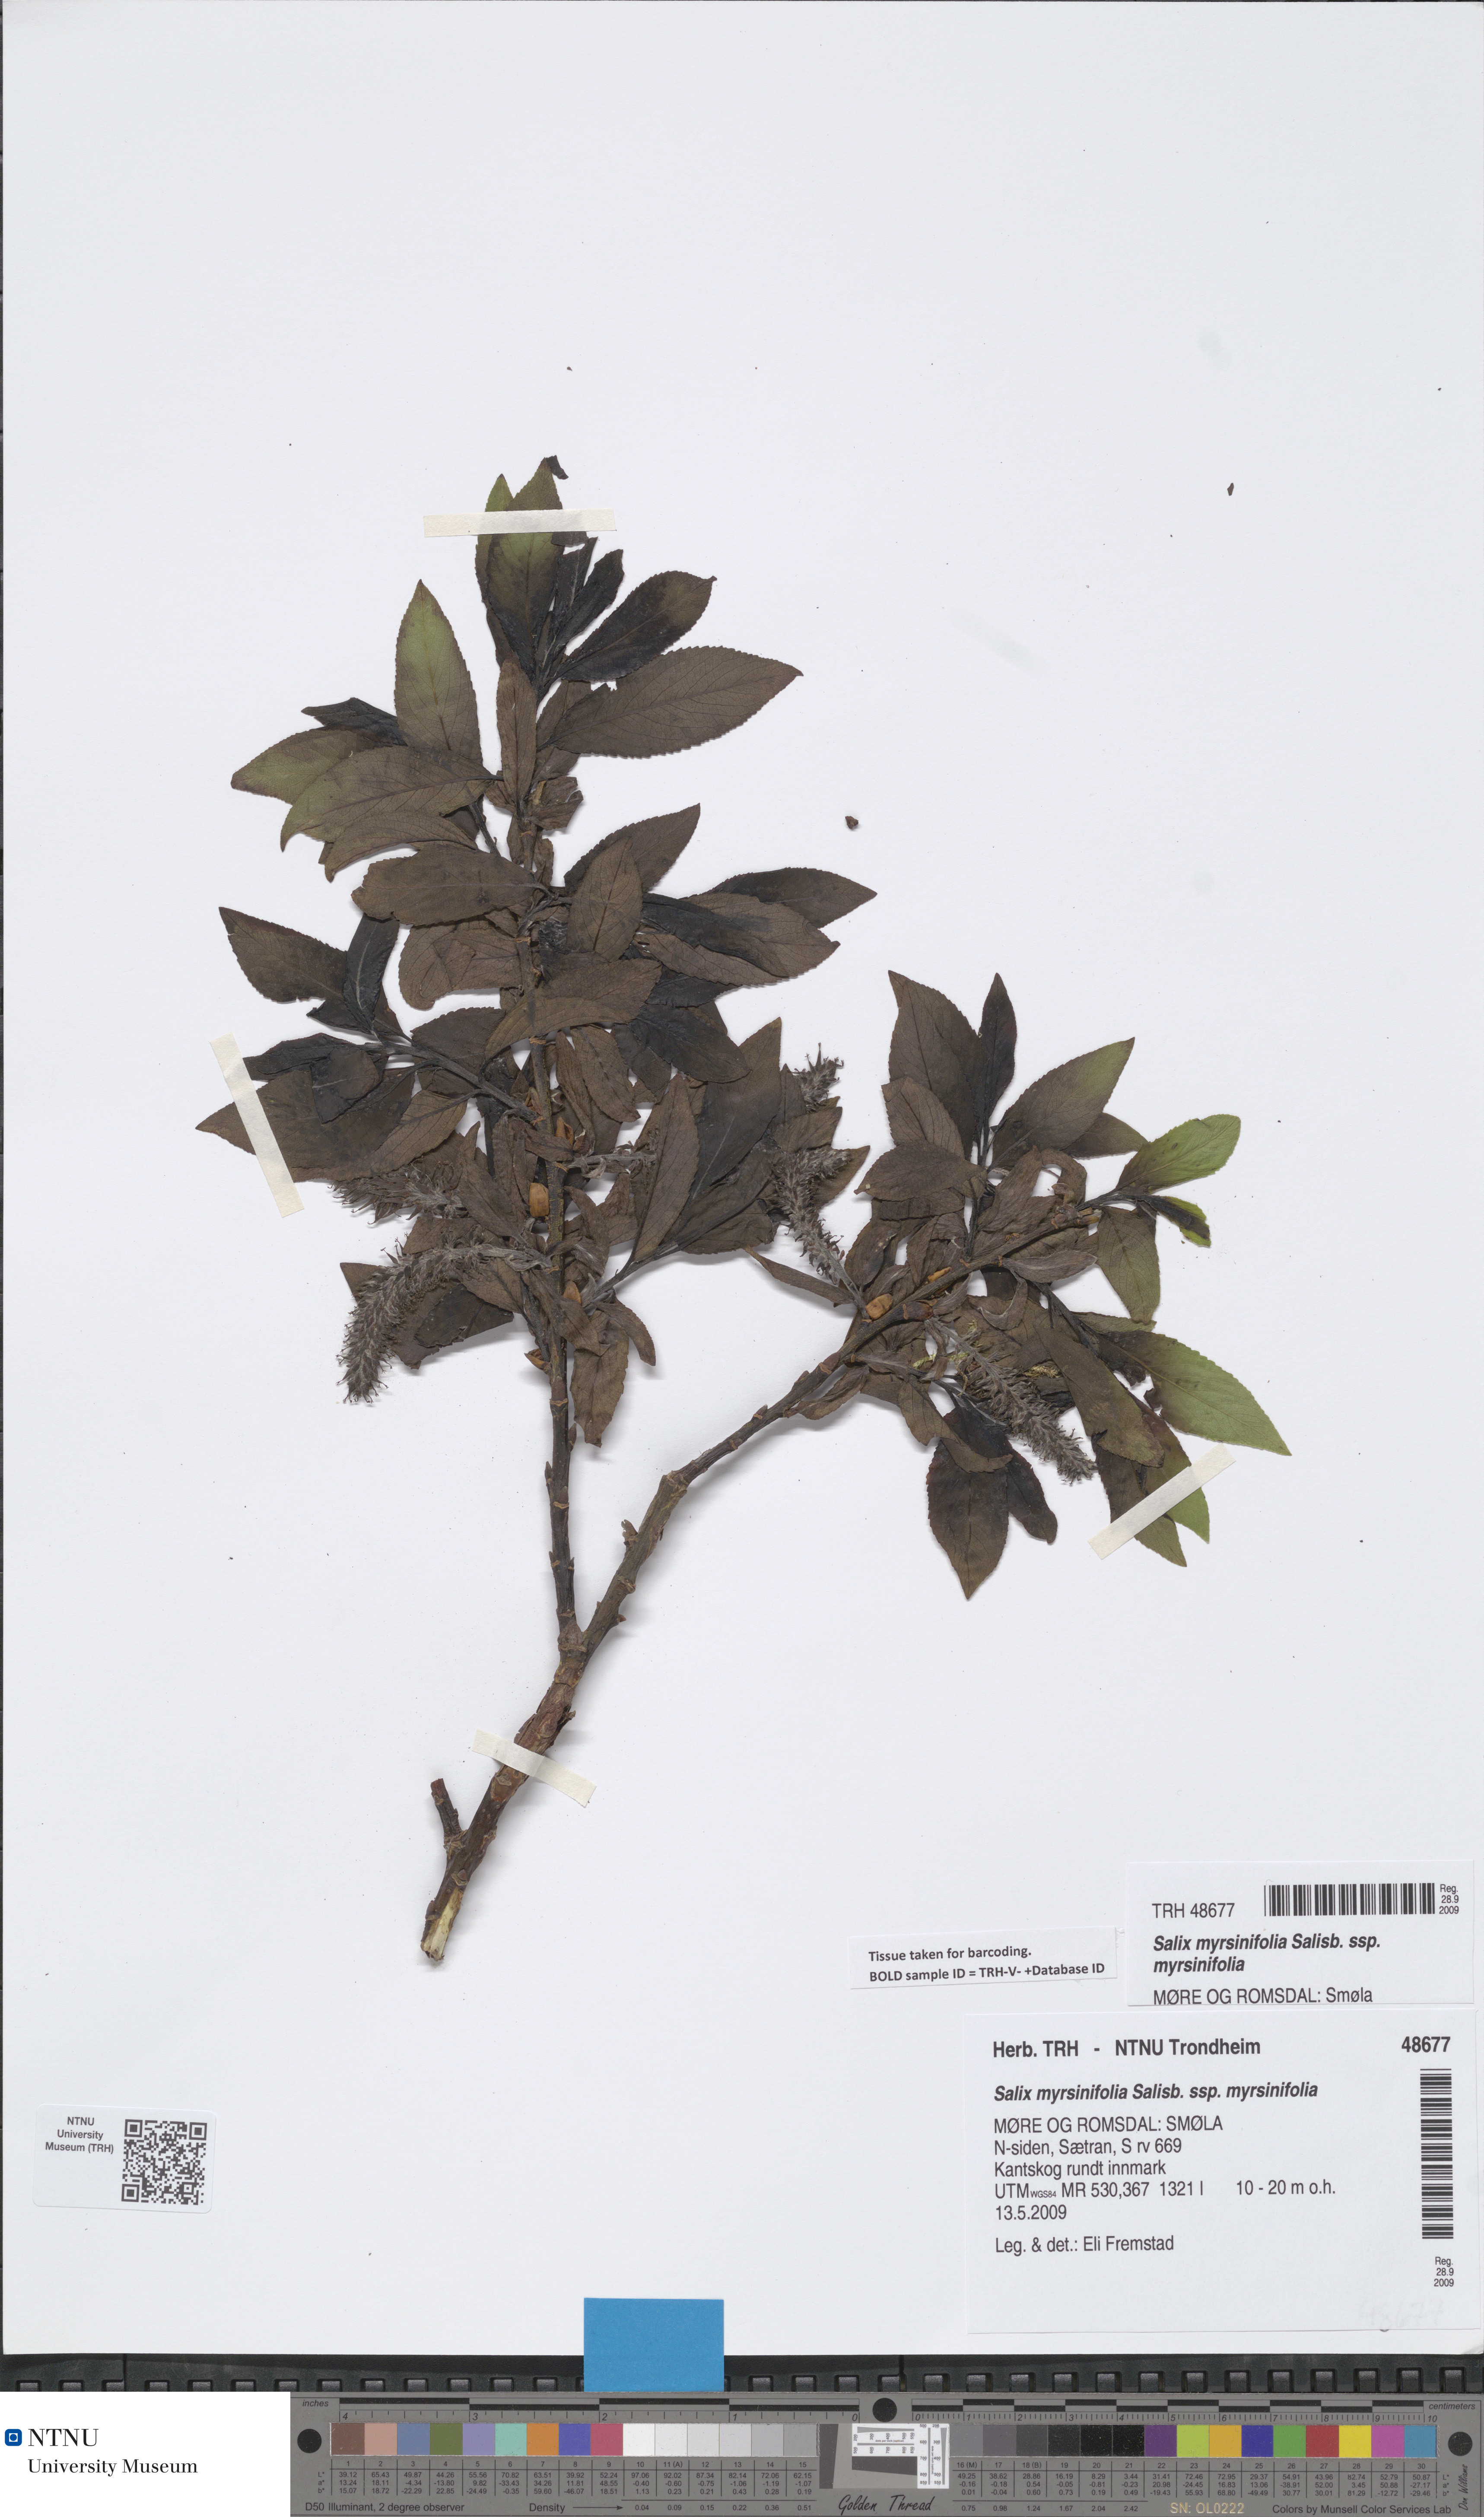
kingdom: Plantae
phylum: Tracheophyta
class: Magnoliopsida
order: Malpighiales
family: Salicaceae
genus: Salix
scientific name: Salix myrsinifolia
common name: Dark-leaved willow
